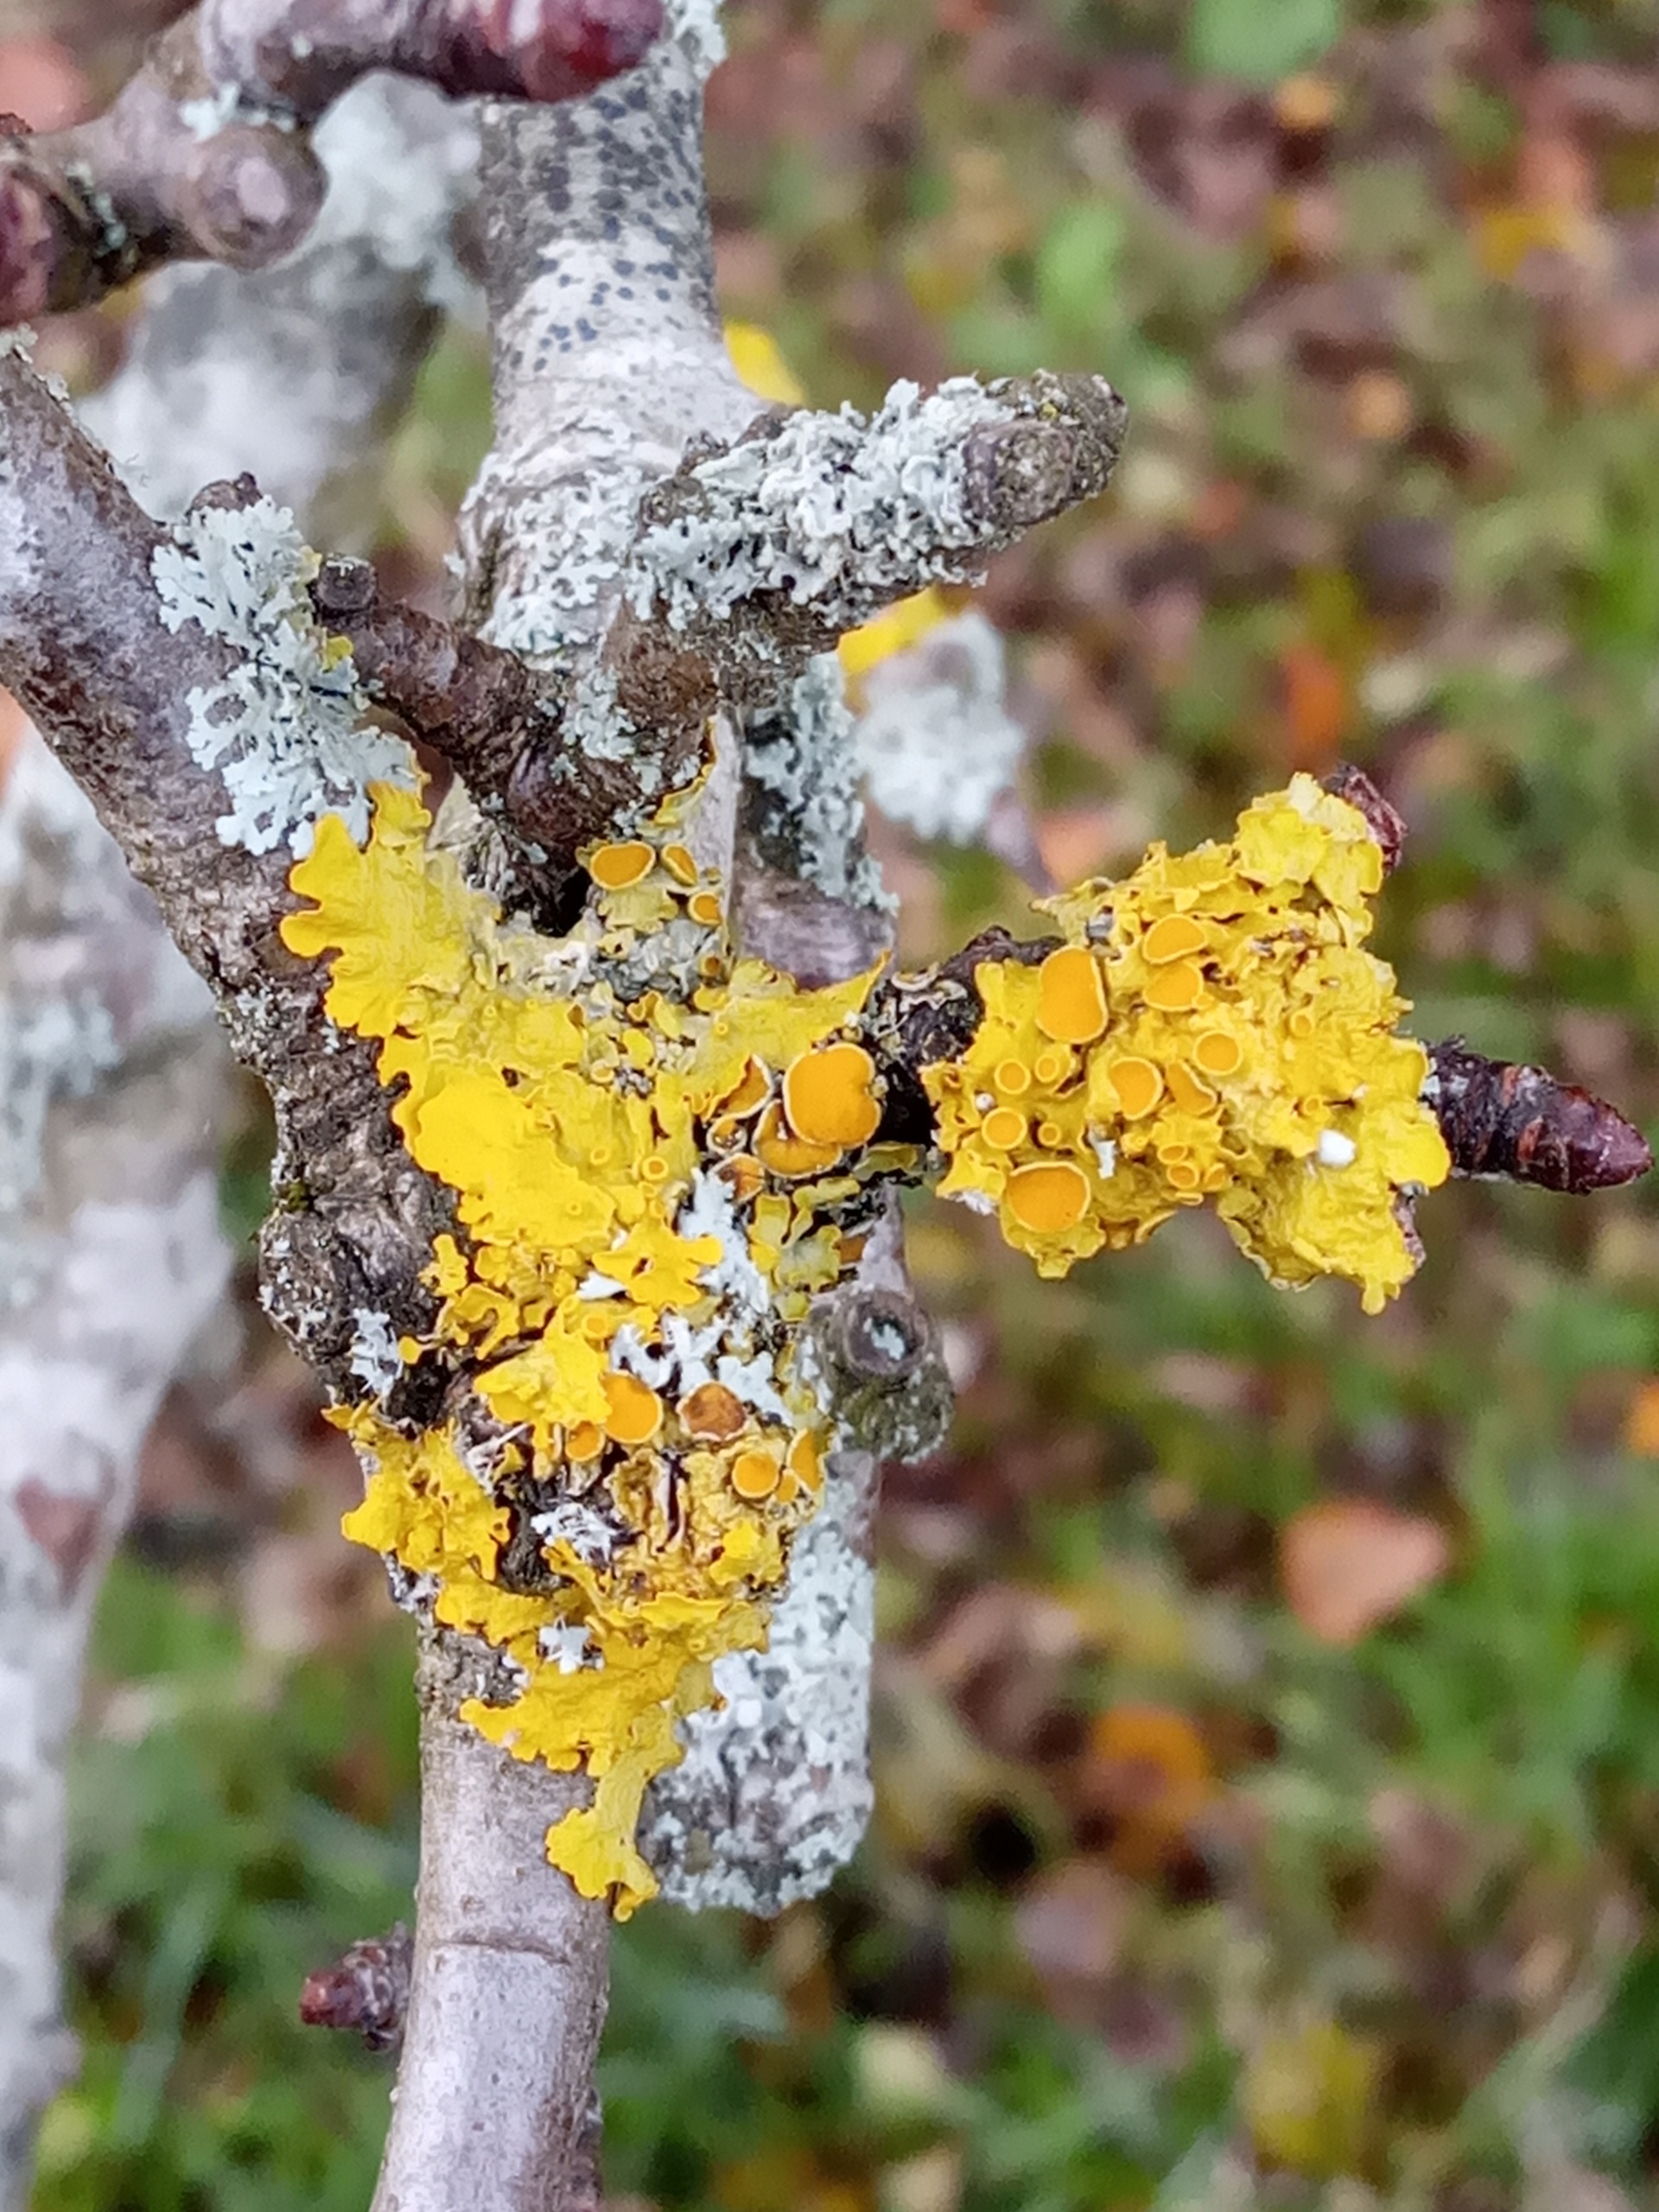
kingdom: Fungi
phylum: Ascomycota
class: Lecanoromycetes
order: Teloschistales
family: Teloschistaceae
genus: Xanthoria
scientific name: Xanthoria parietina
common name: Almindelig væggelav
